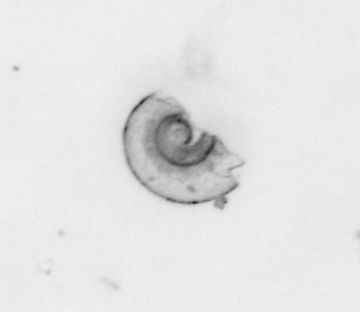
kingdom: Animalia
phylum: Mollusca
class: Gastropoda
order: Pteropoda
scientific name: Pteropoda
